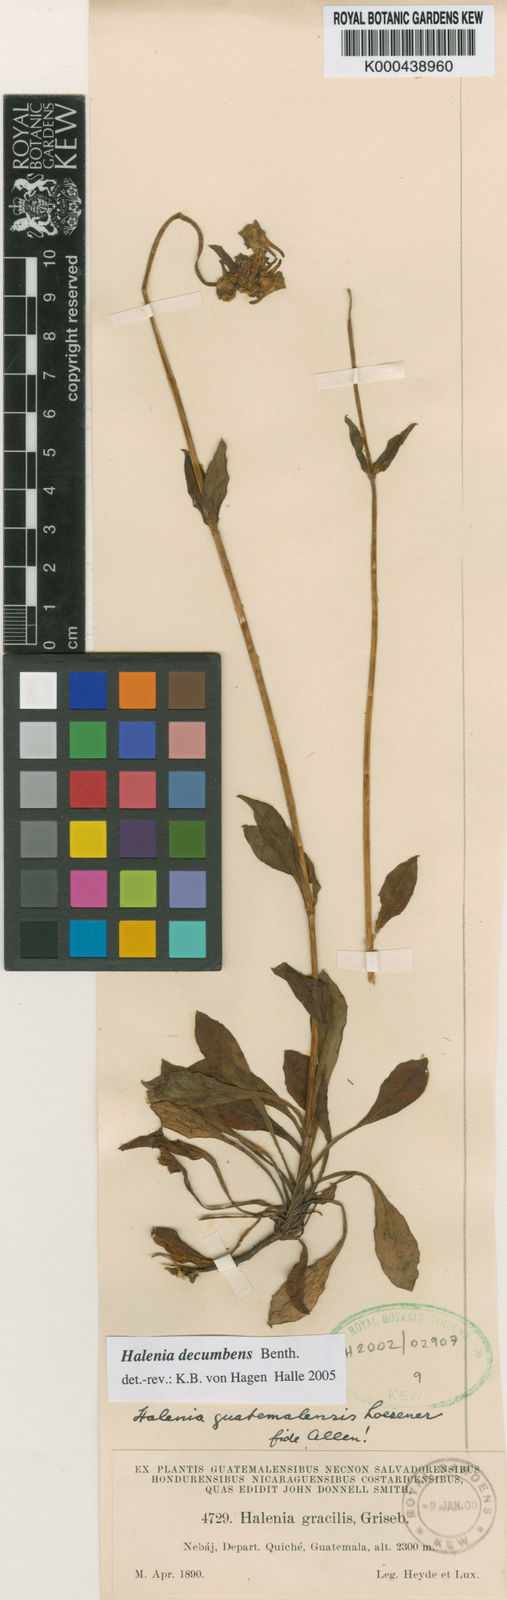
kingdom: Plantae
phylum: Tracheophyta
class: Magnoliopsida
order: Gentianales
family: Gentianaceae
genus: Halenia
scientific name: Halenia decumbens
